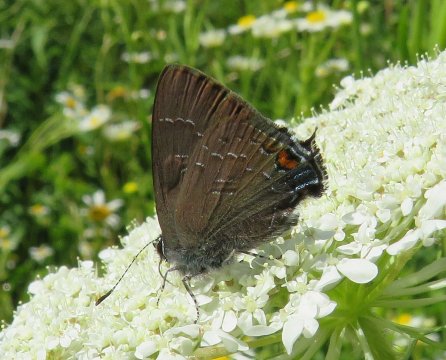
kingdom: Animalia
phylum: Arthropoda
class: Insecta
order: Lepidoptera
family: Lycaenidae
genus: Satyrium
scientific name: Satyrium calanus
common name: Banded Hairstreak
